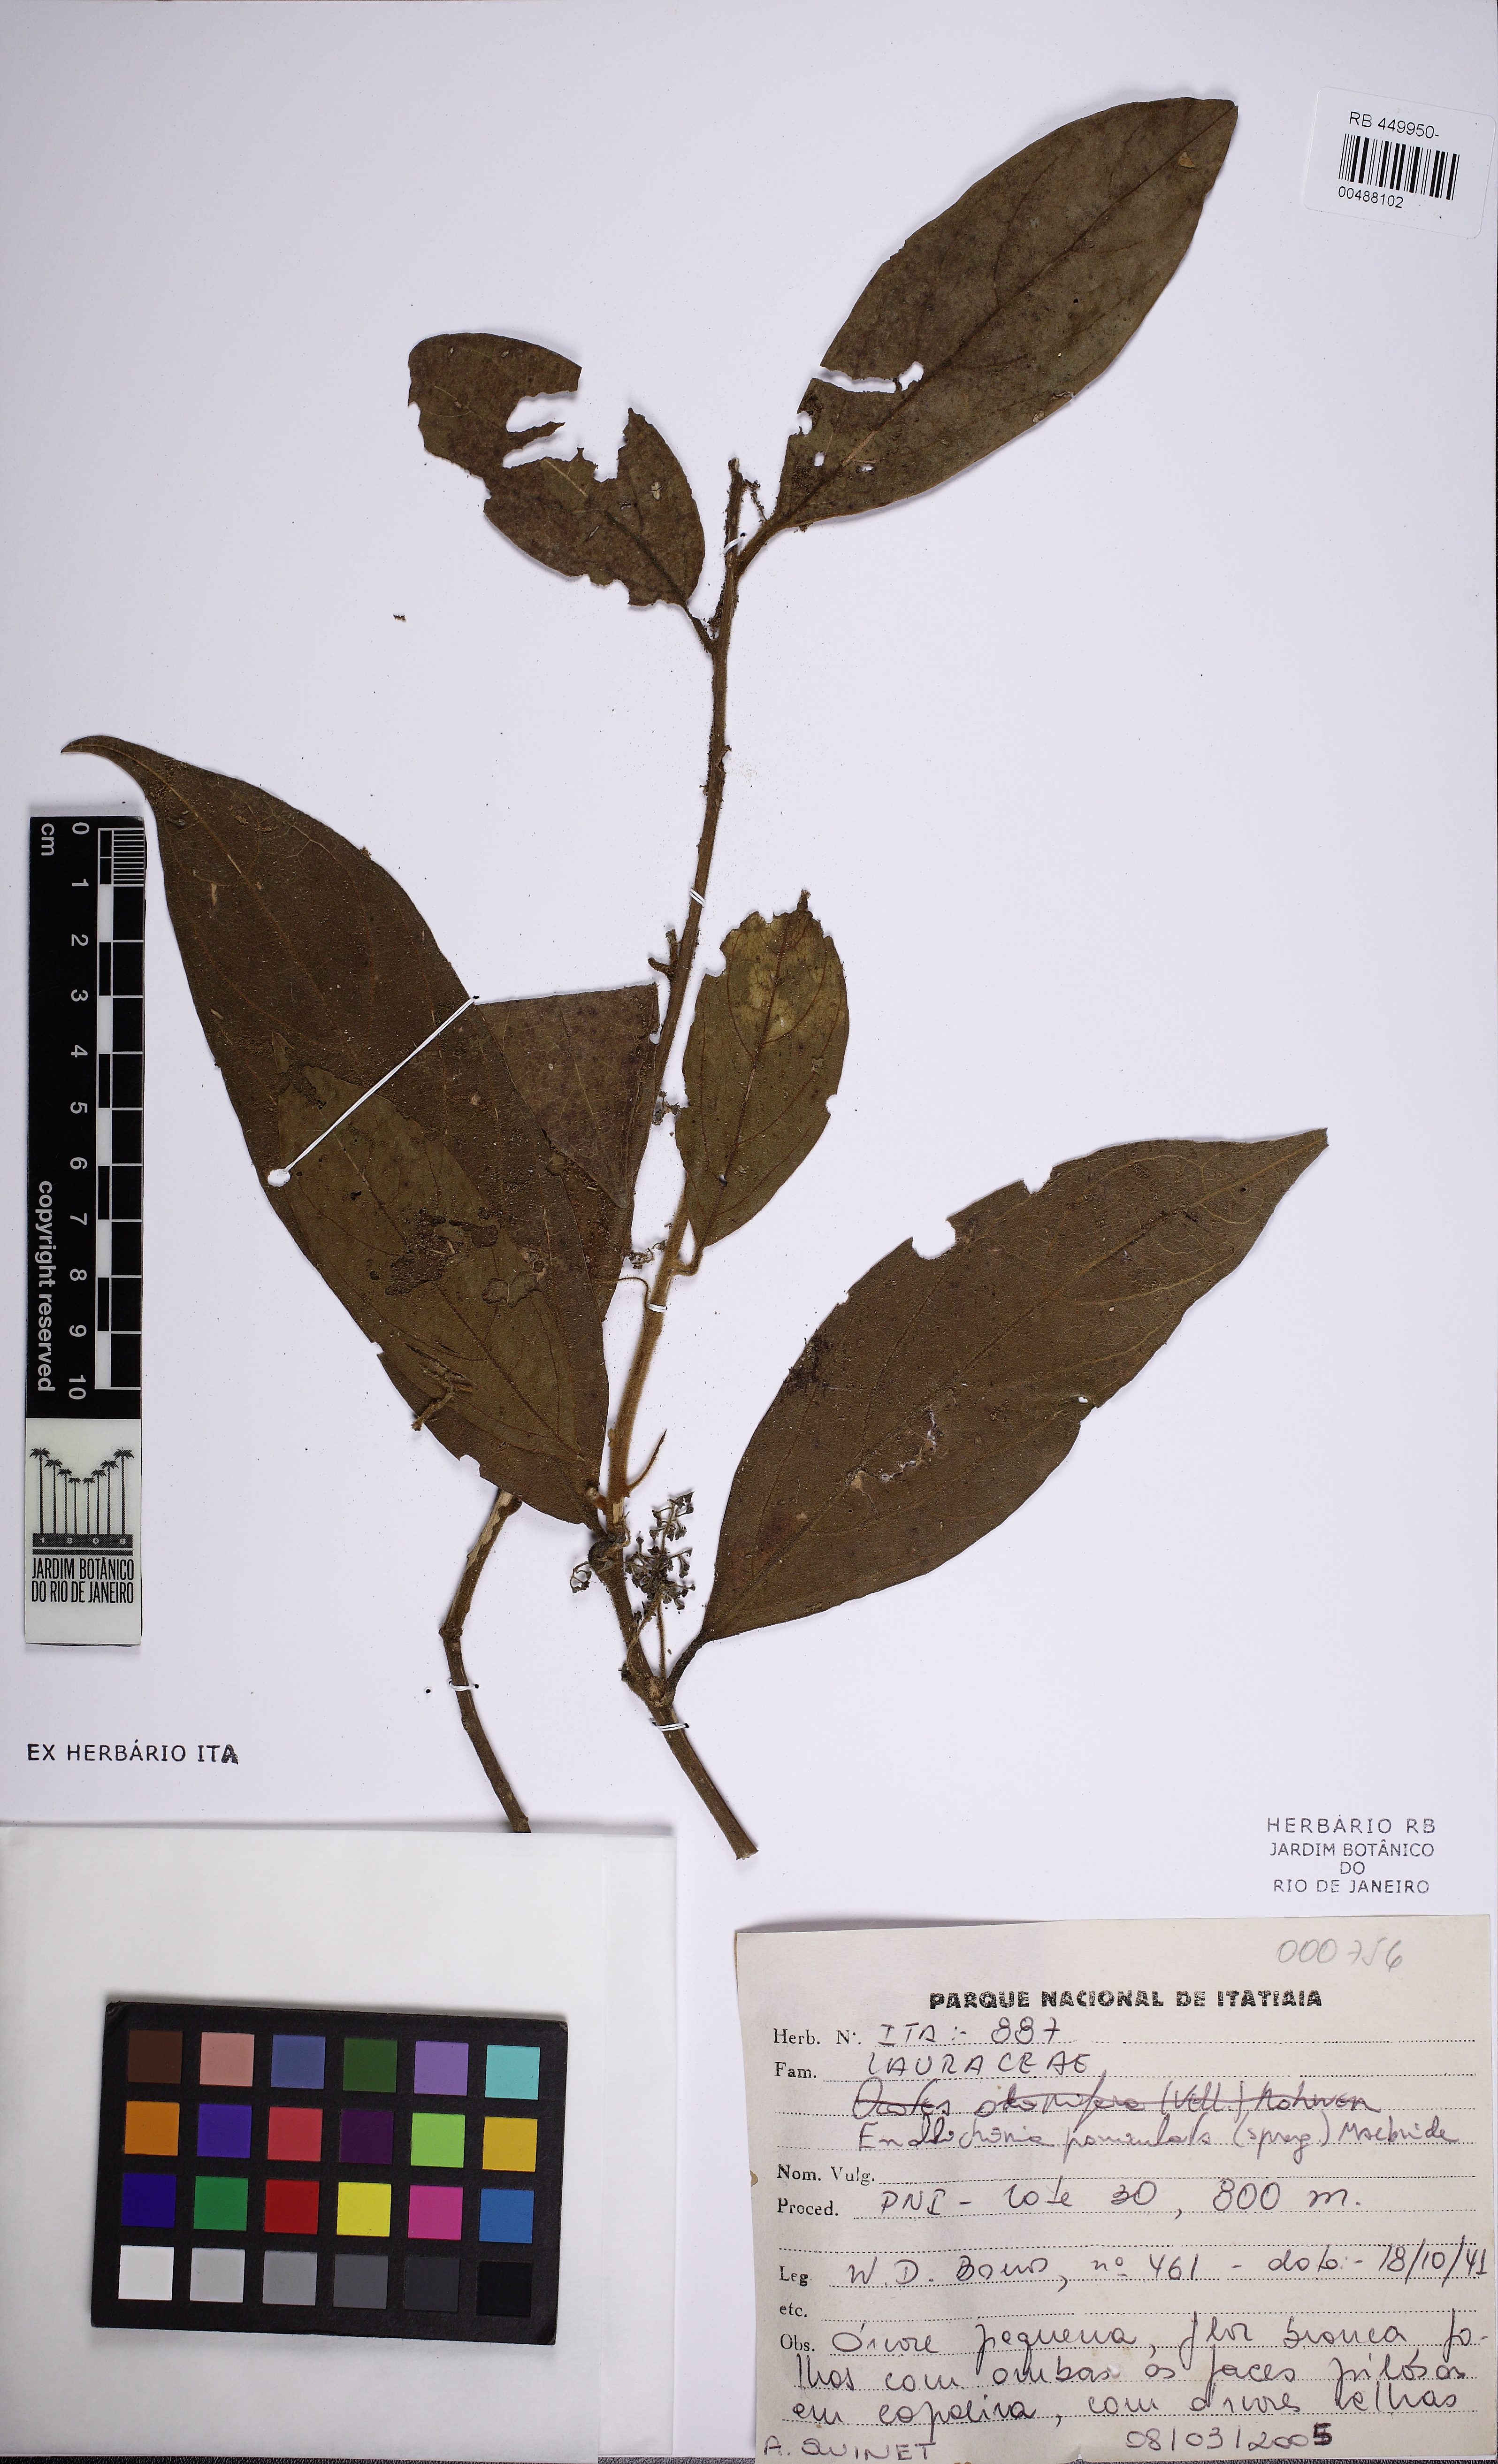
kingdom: Plantae
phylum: Tracheophyta
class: Magnoliopsida
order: Laurales
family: Lauraceae
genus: Endlicheria
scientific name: Endlicheria paniculata
